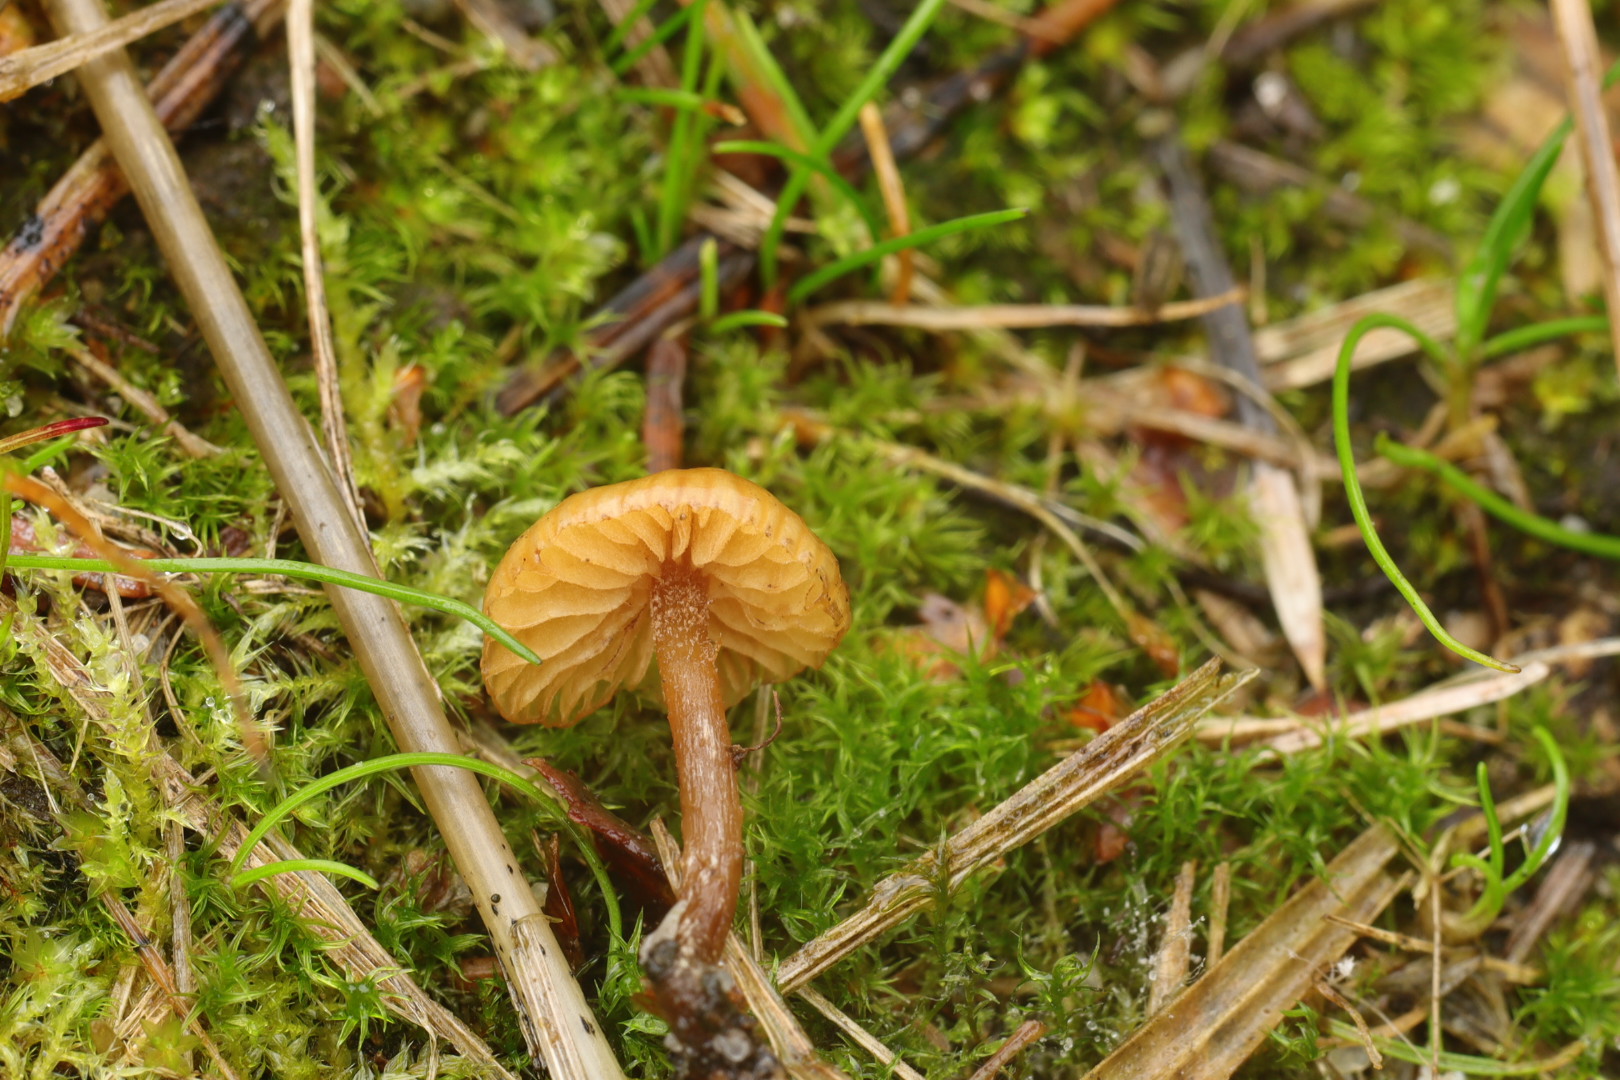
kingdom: Fungi
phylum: Basidiomycota
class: Agaricomycetes
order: Agaricales
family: Hymenogastraceae
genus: Galerina
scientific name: Galerina nana
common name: dværg-hjelmhat
